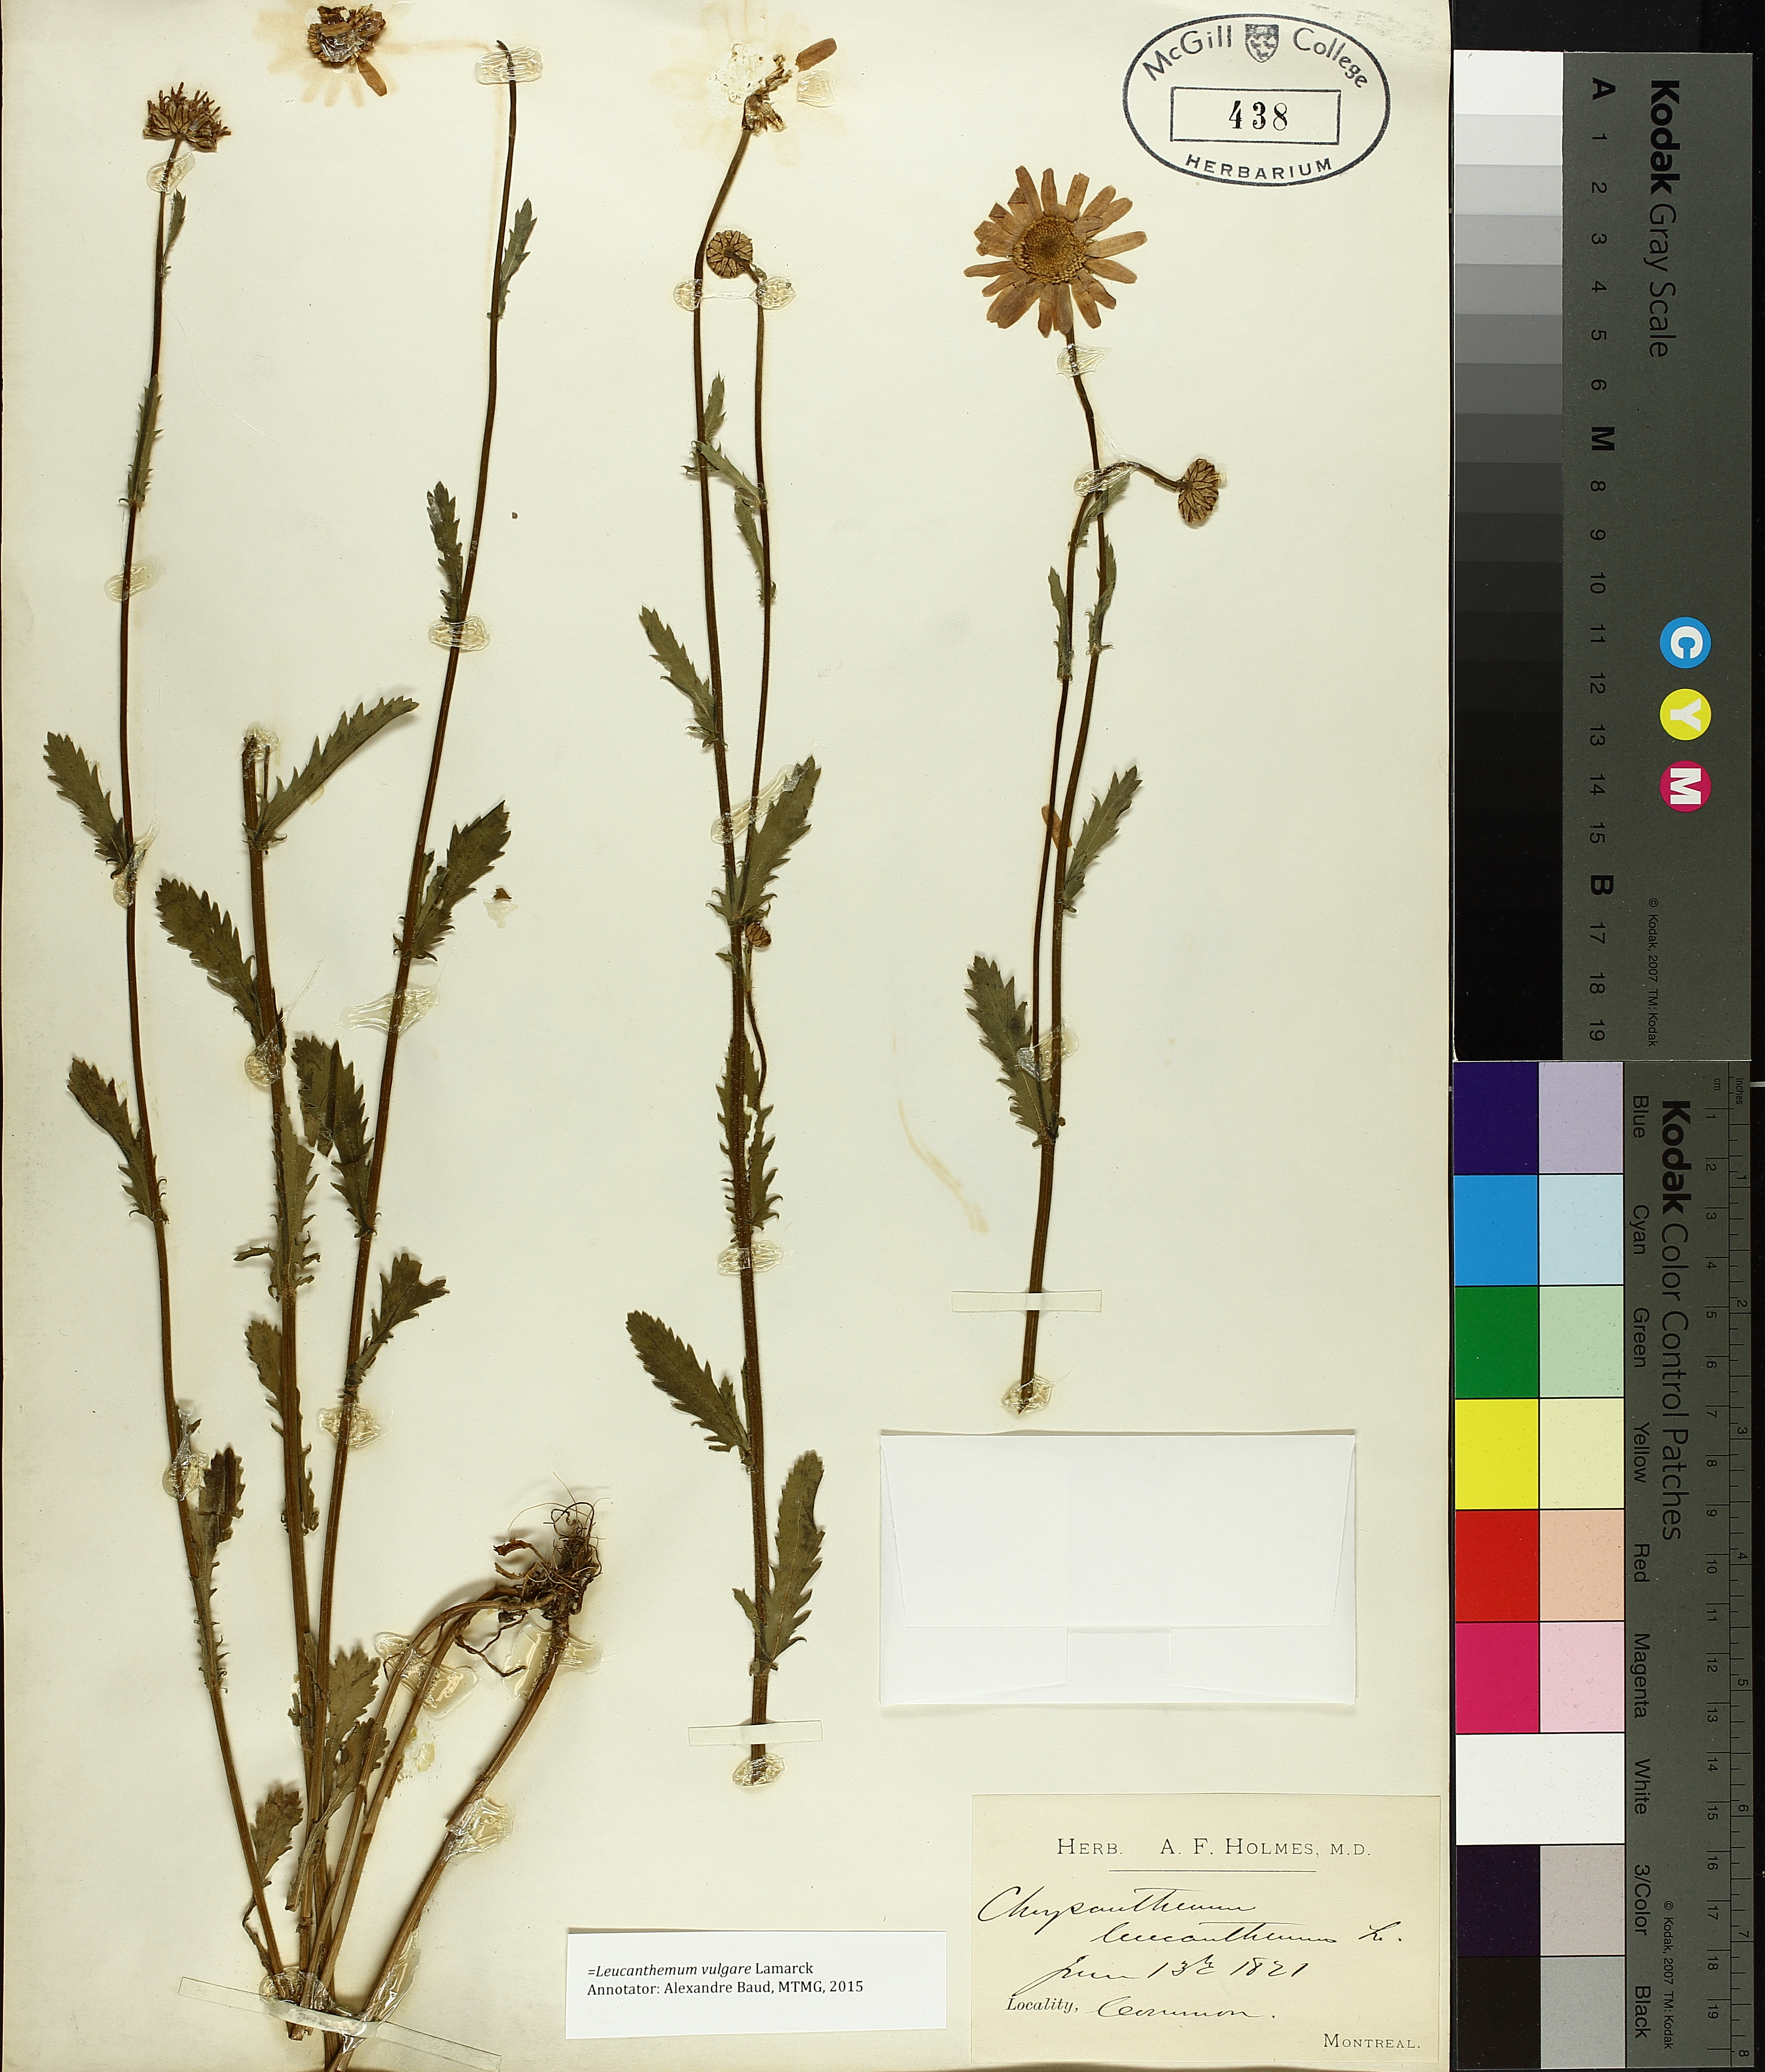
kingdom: Plantae
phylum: Tracheophyta
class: Magnoliopsida
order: Asterales
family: Asteraceae
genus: Leucanthemum
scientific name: Leucanthemum vulgare
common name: Oxeye daisy
